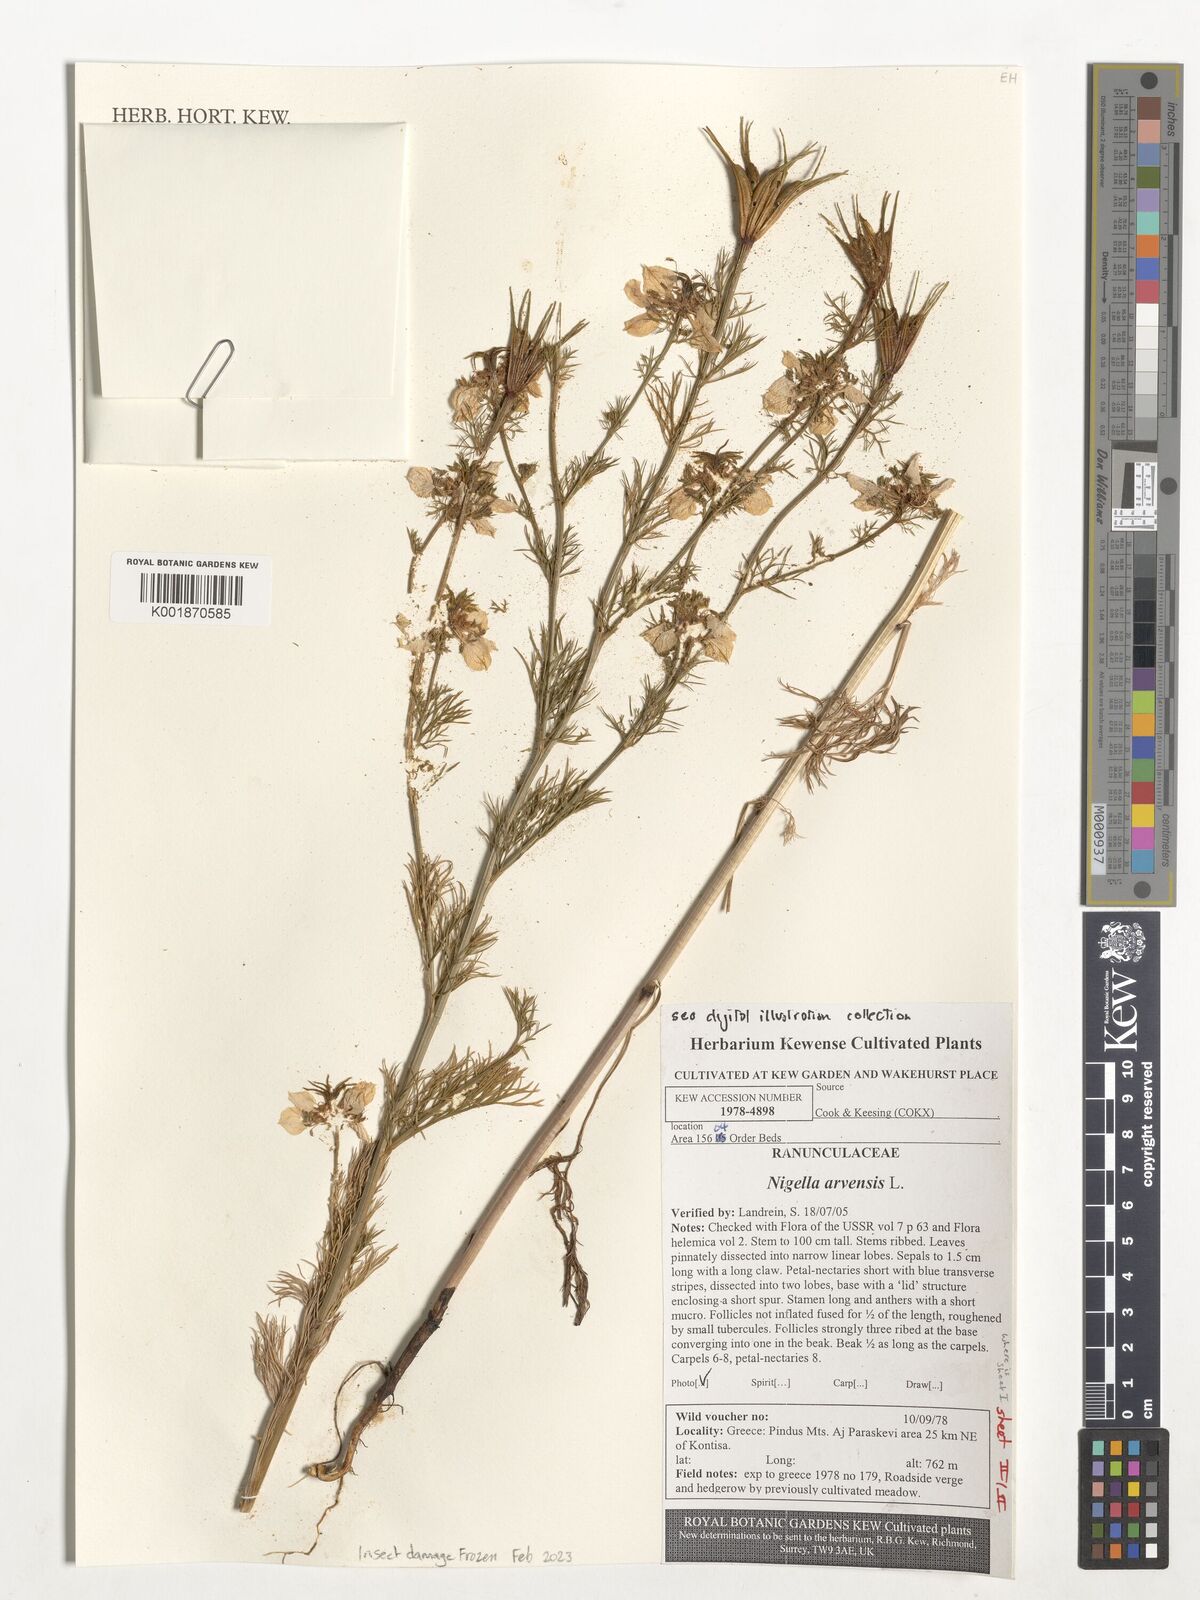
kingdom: Plantae
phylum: Tracheophyta
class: Magnoliopsida
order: Ranunculales
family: Ranunculaceae
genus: Nigella
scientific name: Nigella arvensis
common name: Wild fennel-flower
